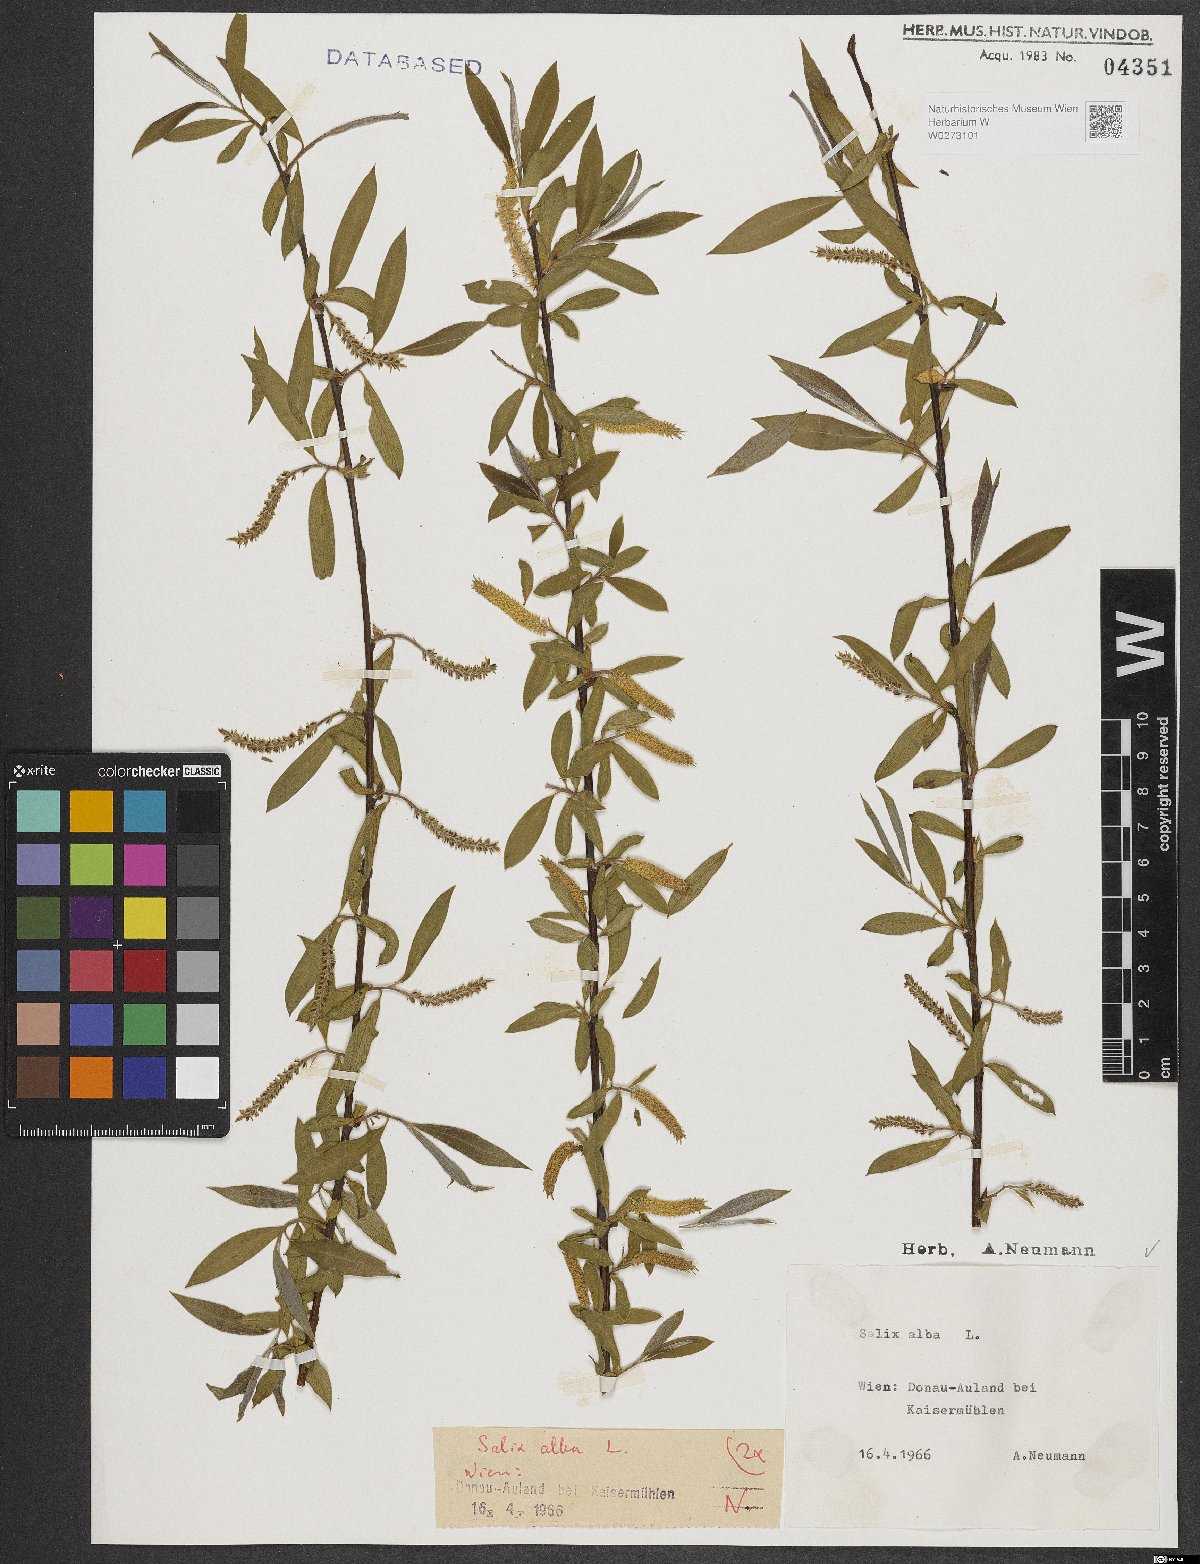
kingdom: Plantae
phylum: Tracheophyta
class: Magnoliopsida
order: Malpighiales
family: Salicaceae
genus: Salix
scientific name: Salix alba
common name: White willow
